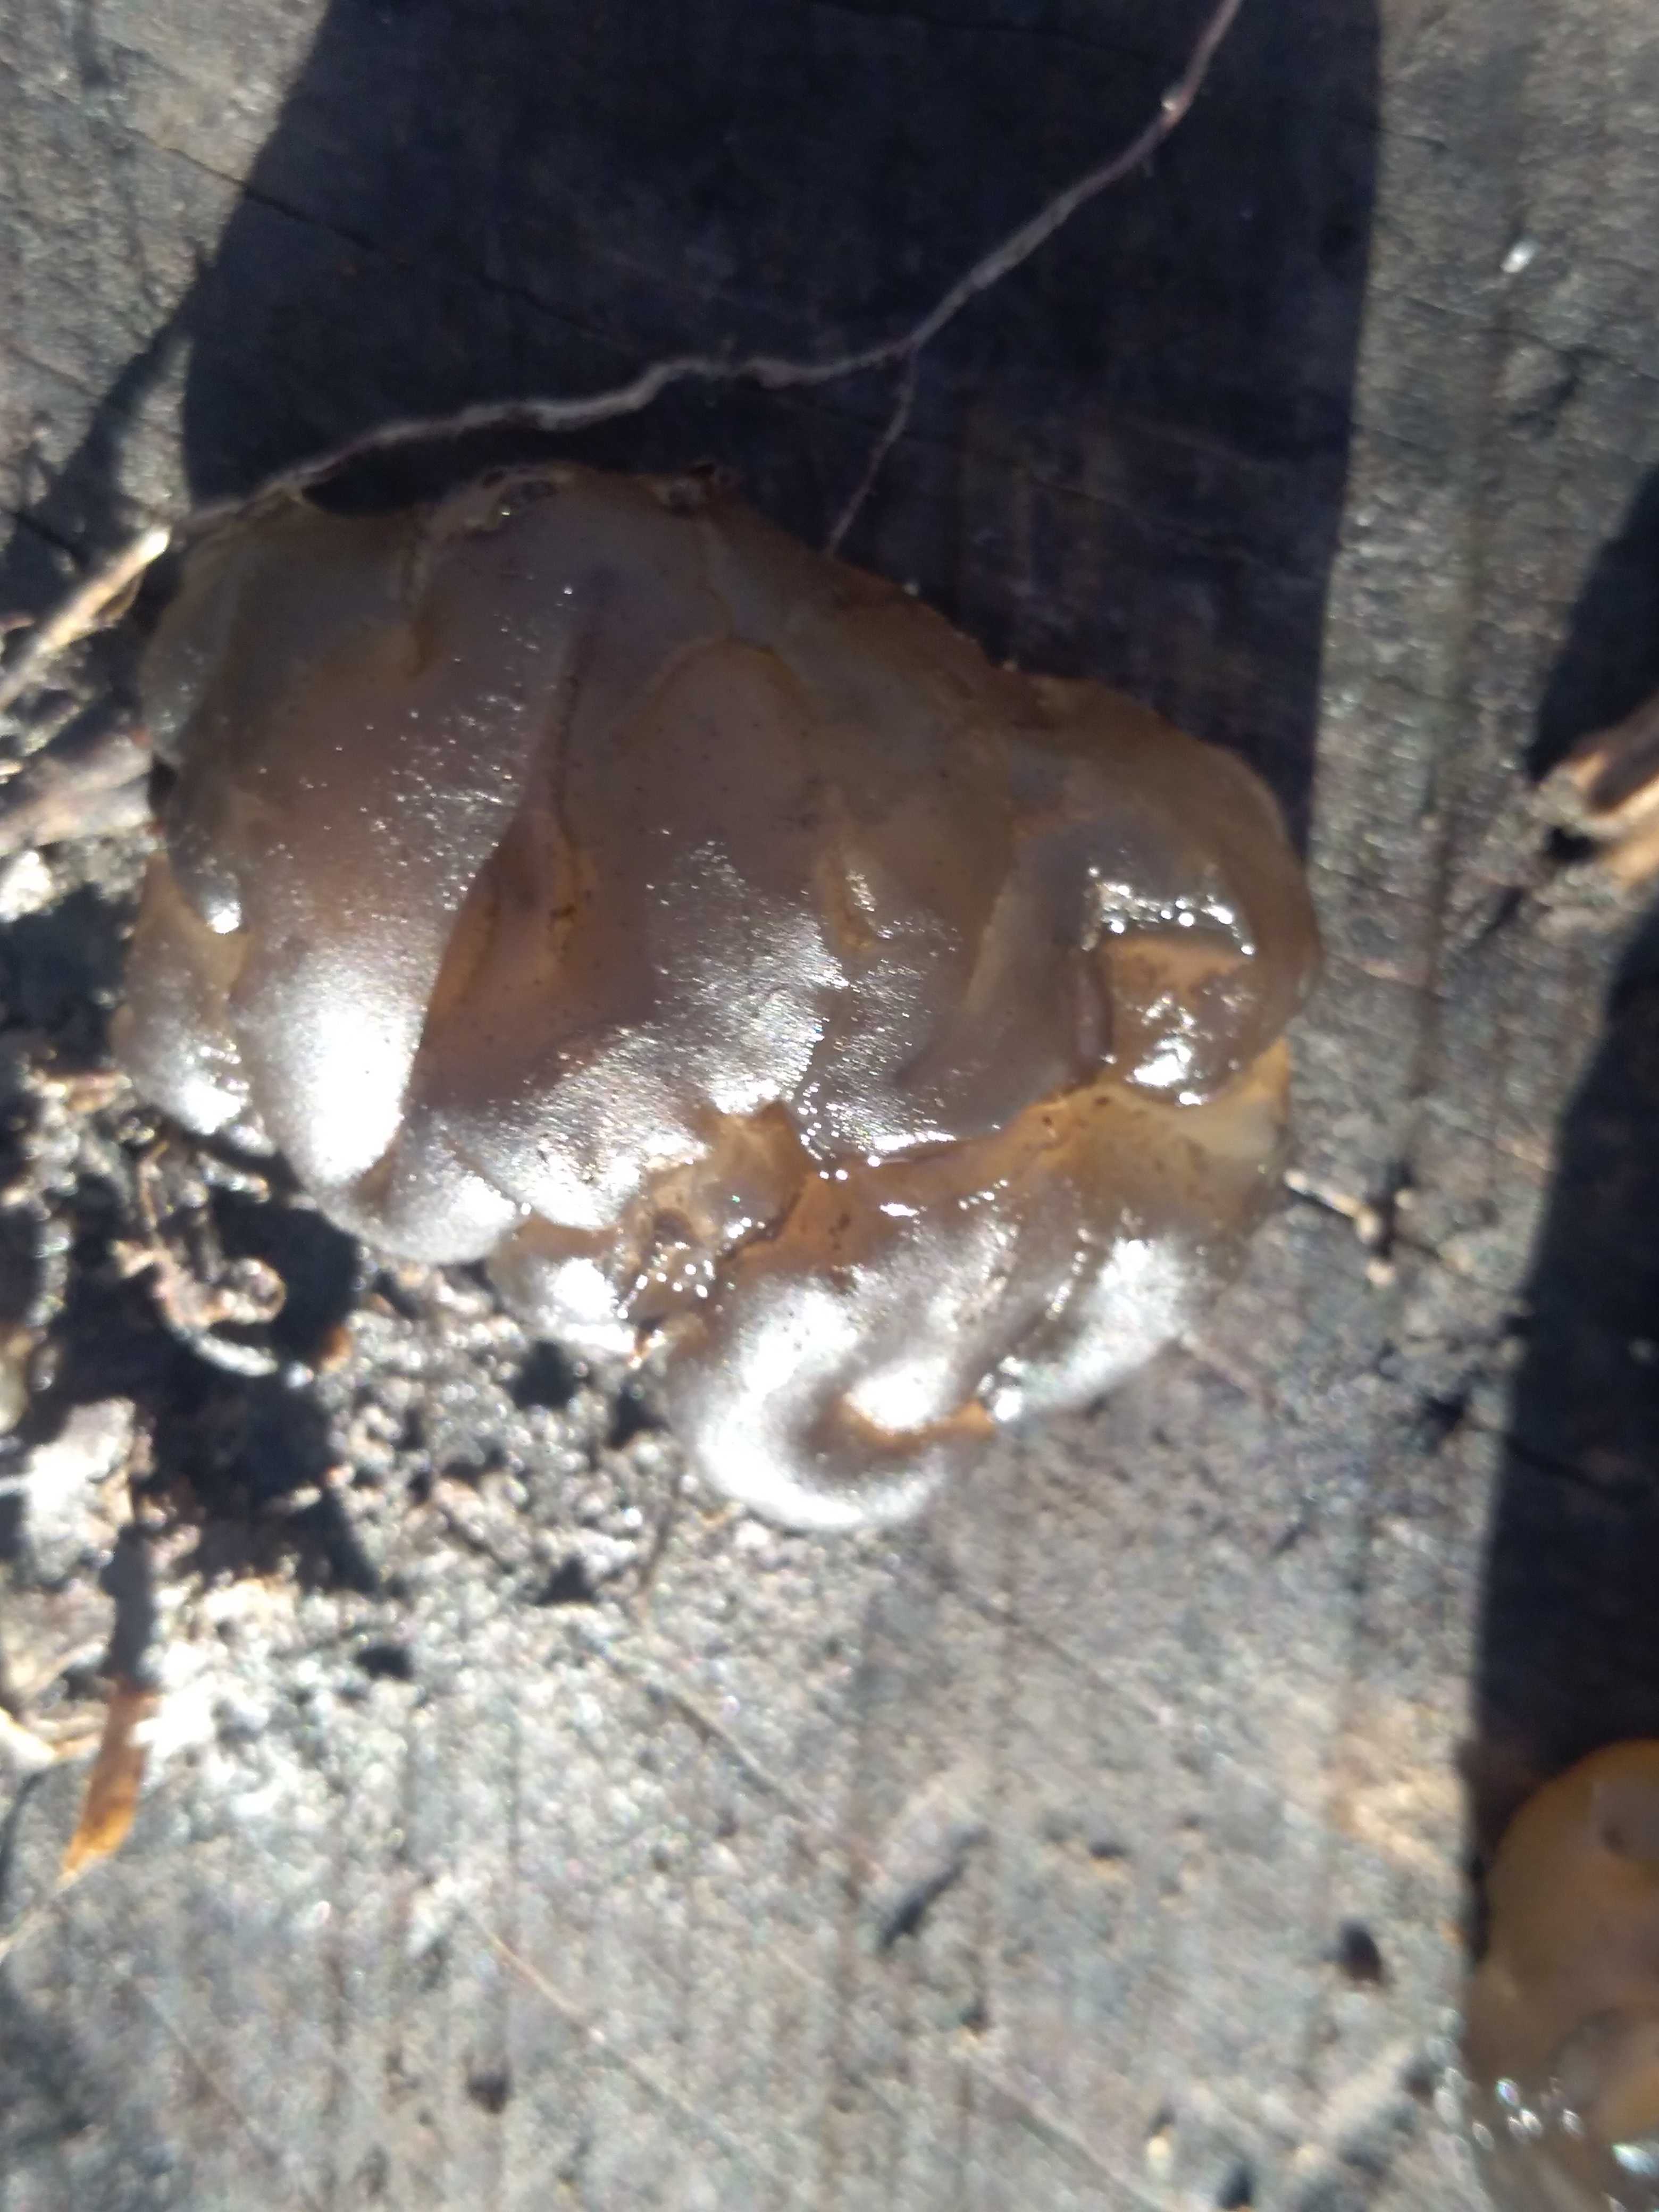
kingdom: Fungi
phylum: Basidiomycota
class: Agaricomycetes
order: Auriculariales
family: Auriculariaceae
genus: Exidia
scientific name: Exidia nigricans
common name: almindelig bævretop
